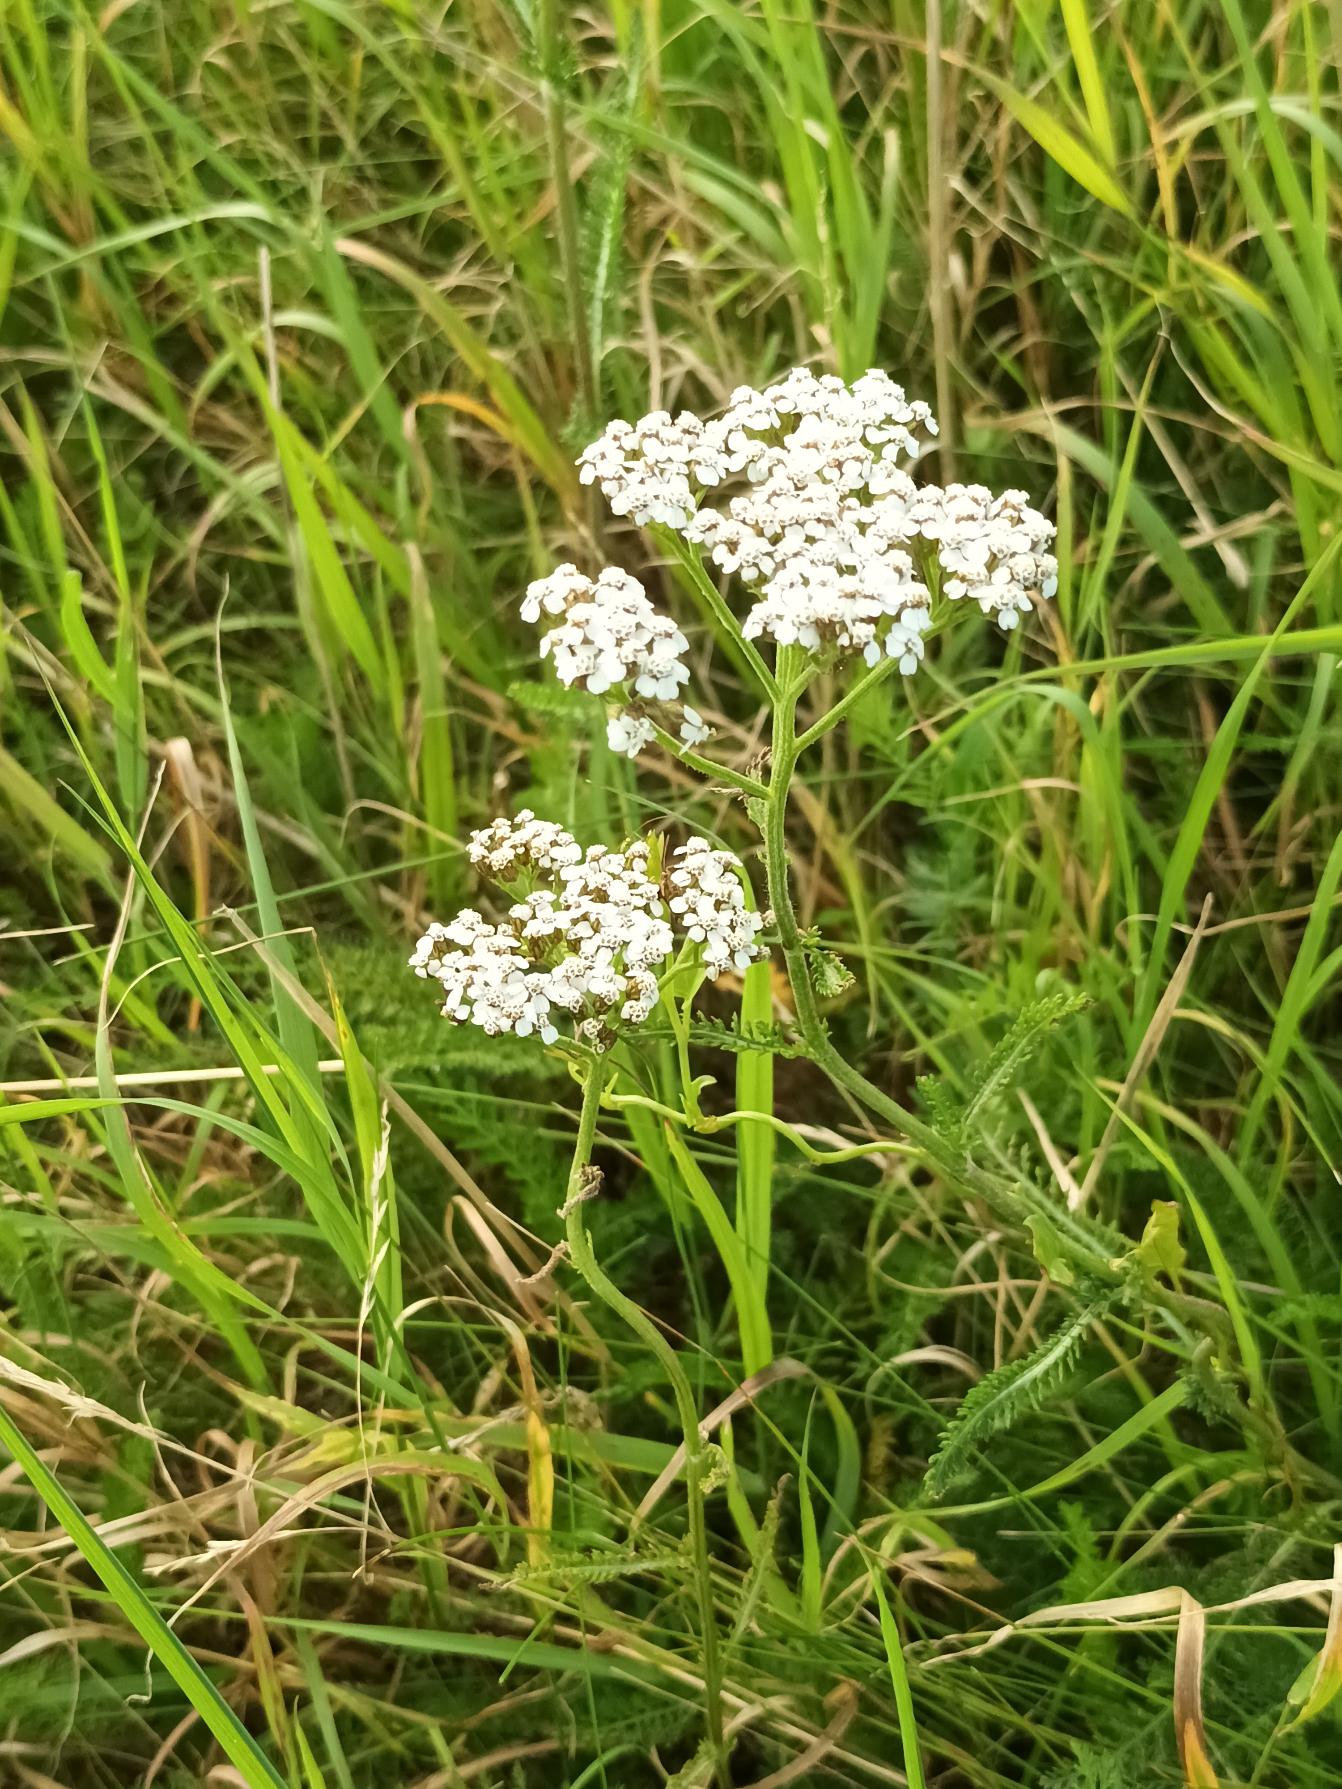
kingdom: Plantae
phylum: Tracheophyta
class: Magnoliopsida
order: Asterales
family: Asteraceae
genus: Achillea
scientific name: Achillea millefolium
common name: Almindelig røllike
